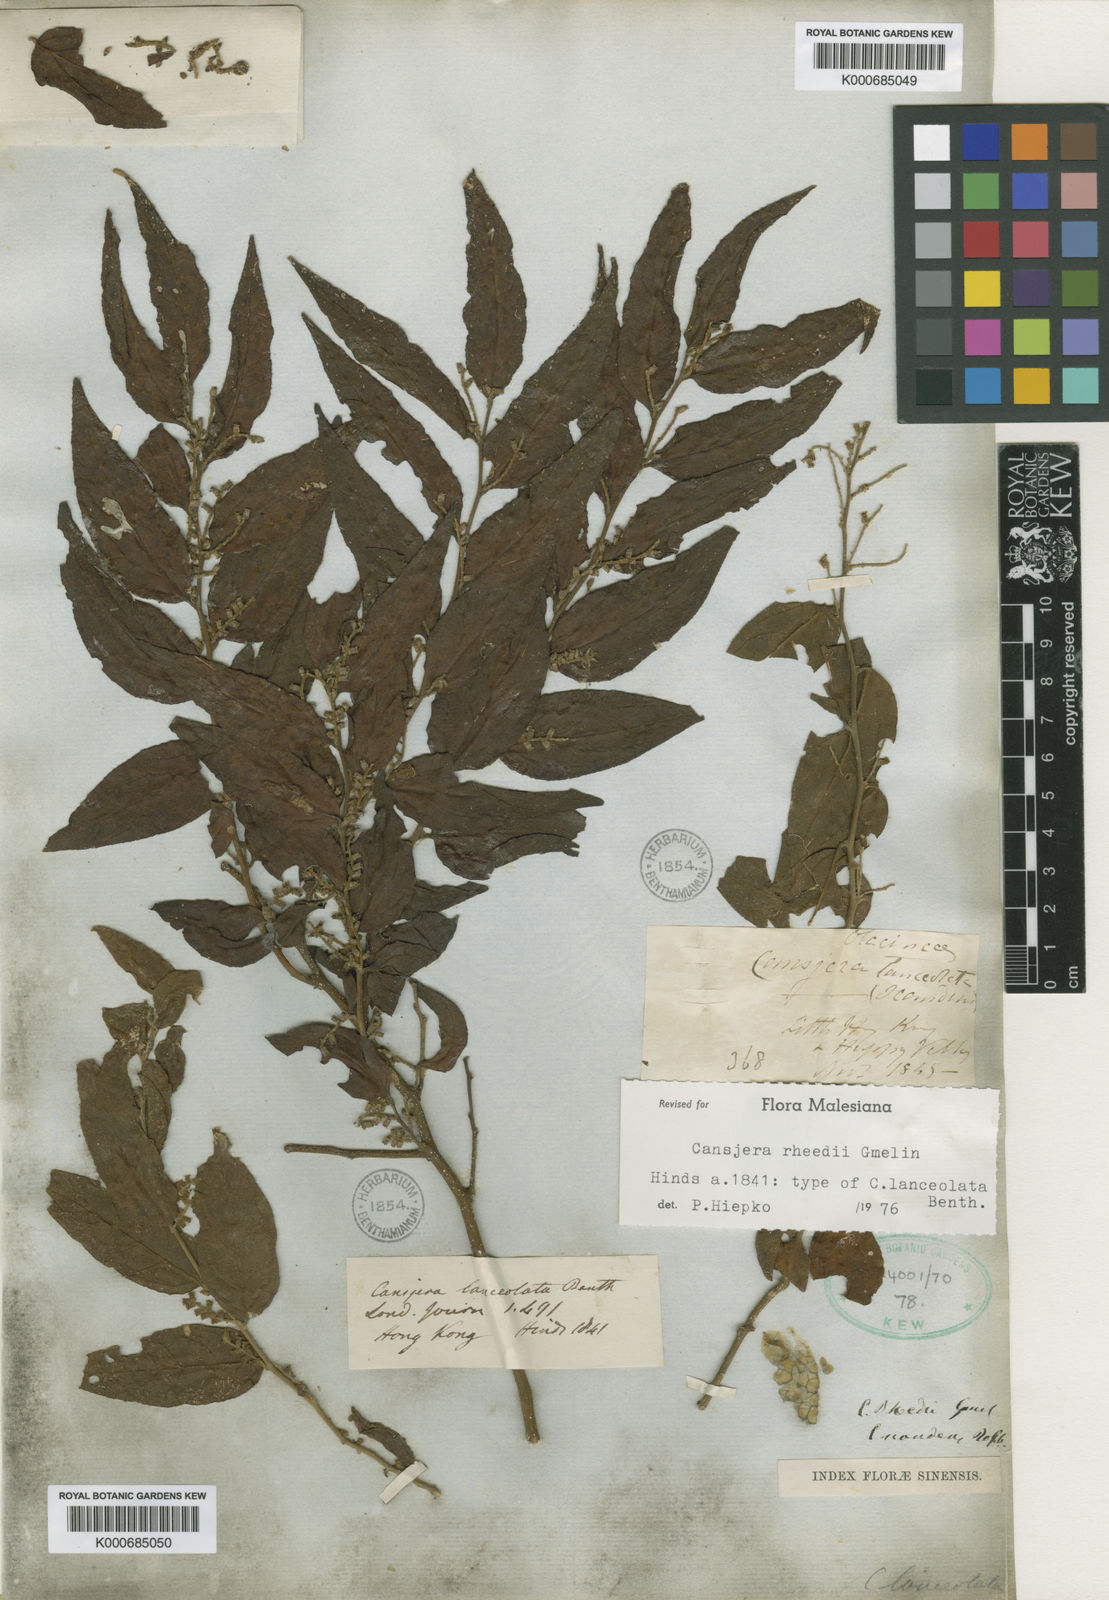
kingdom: Plantae
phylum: Tracheophyta
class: Magnoliopsida
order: Santalales
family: Opiliaceae
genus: Cansjera
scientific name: Cansjera rheedei
